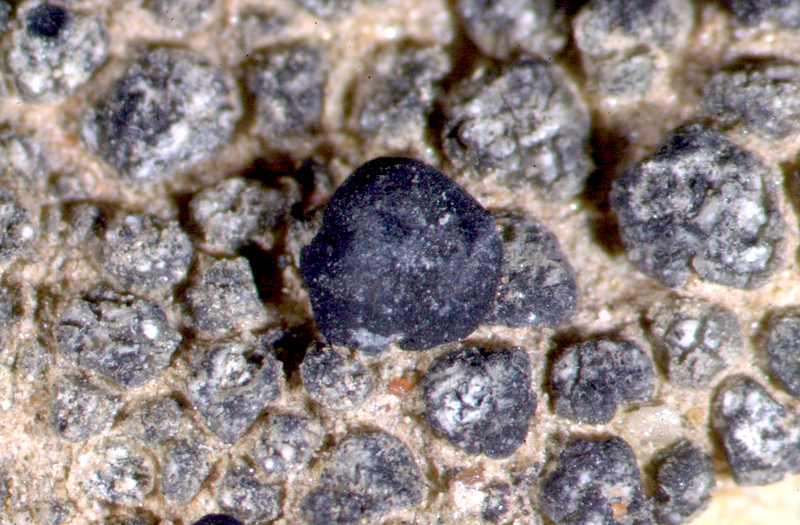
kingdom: Fungi
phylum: Ascomycota
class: Lecanoromycetes
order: Lecanorales
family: Ramalinaceae
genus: Bibbya
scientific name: Bibbya lutosa
